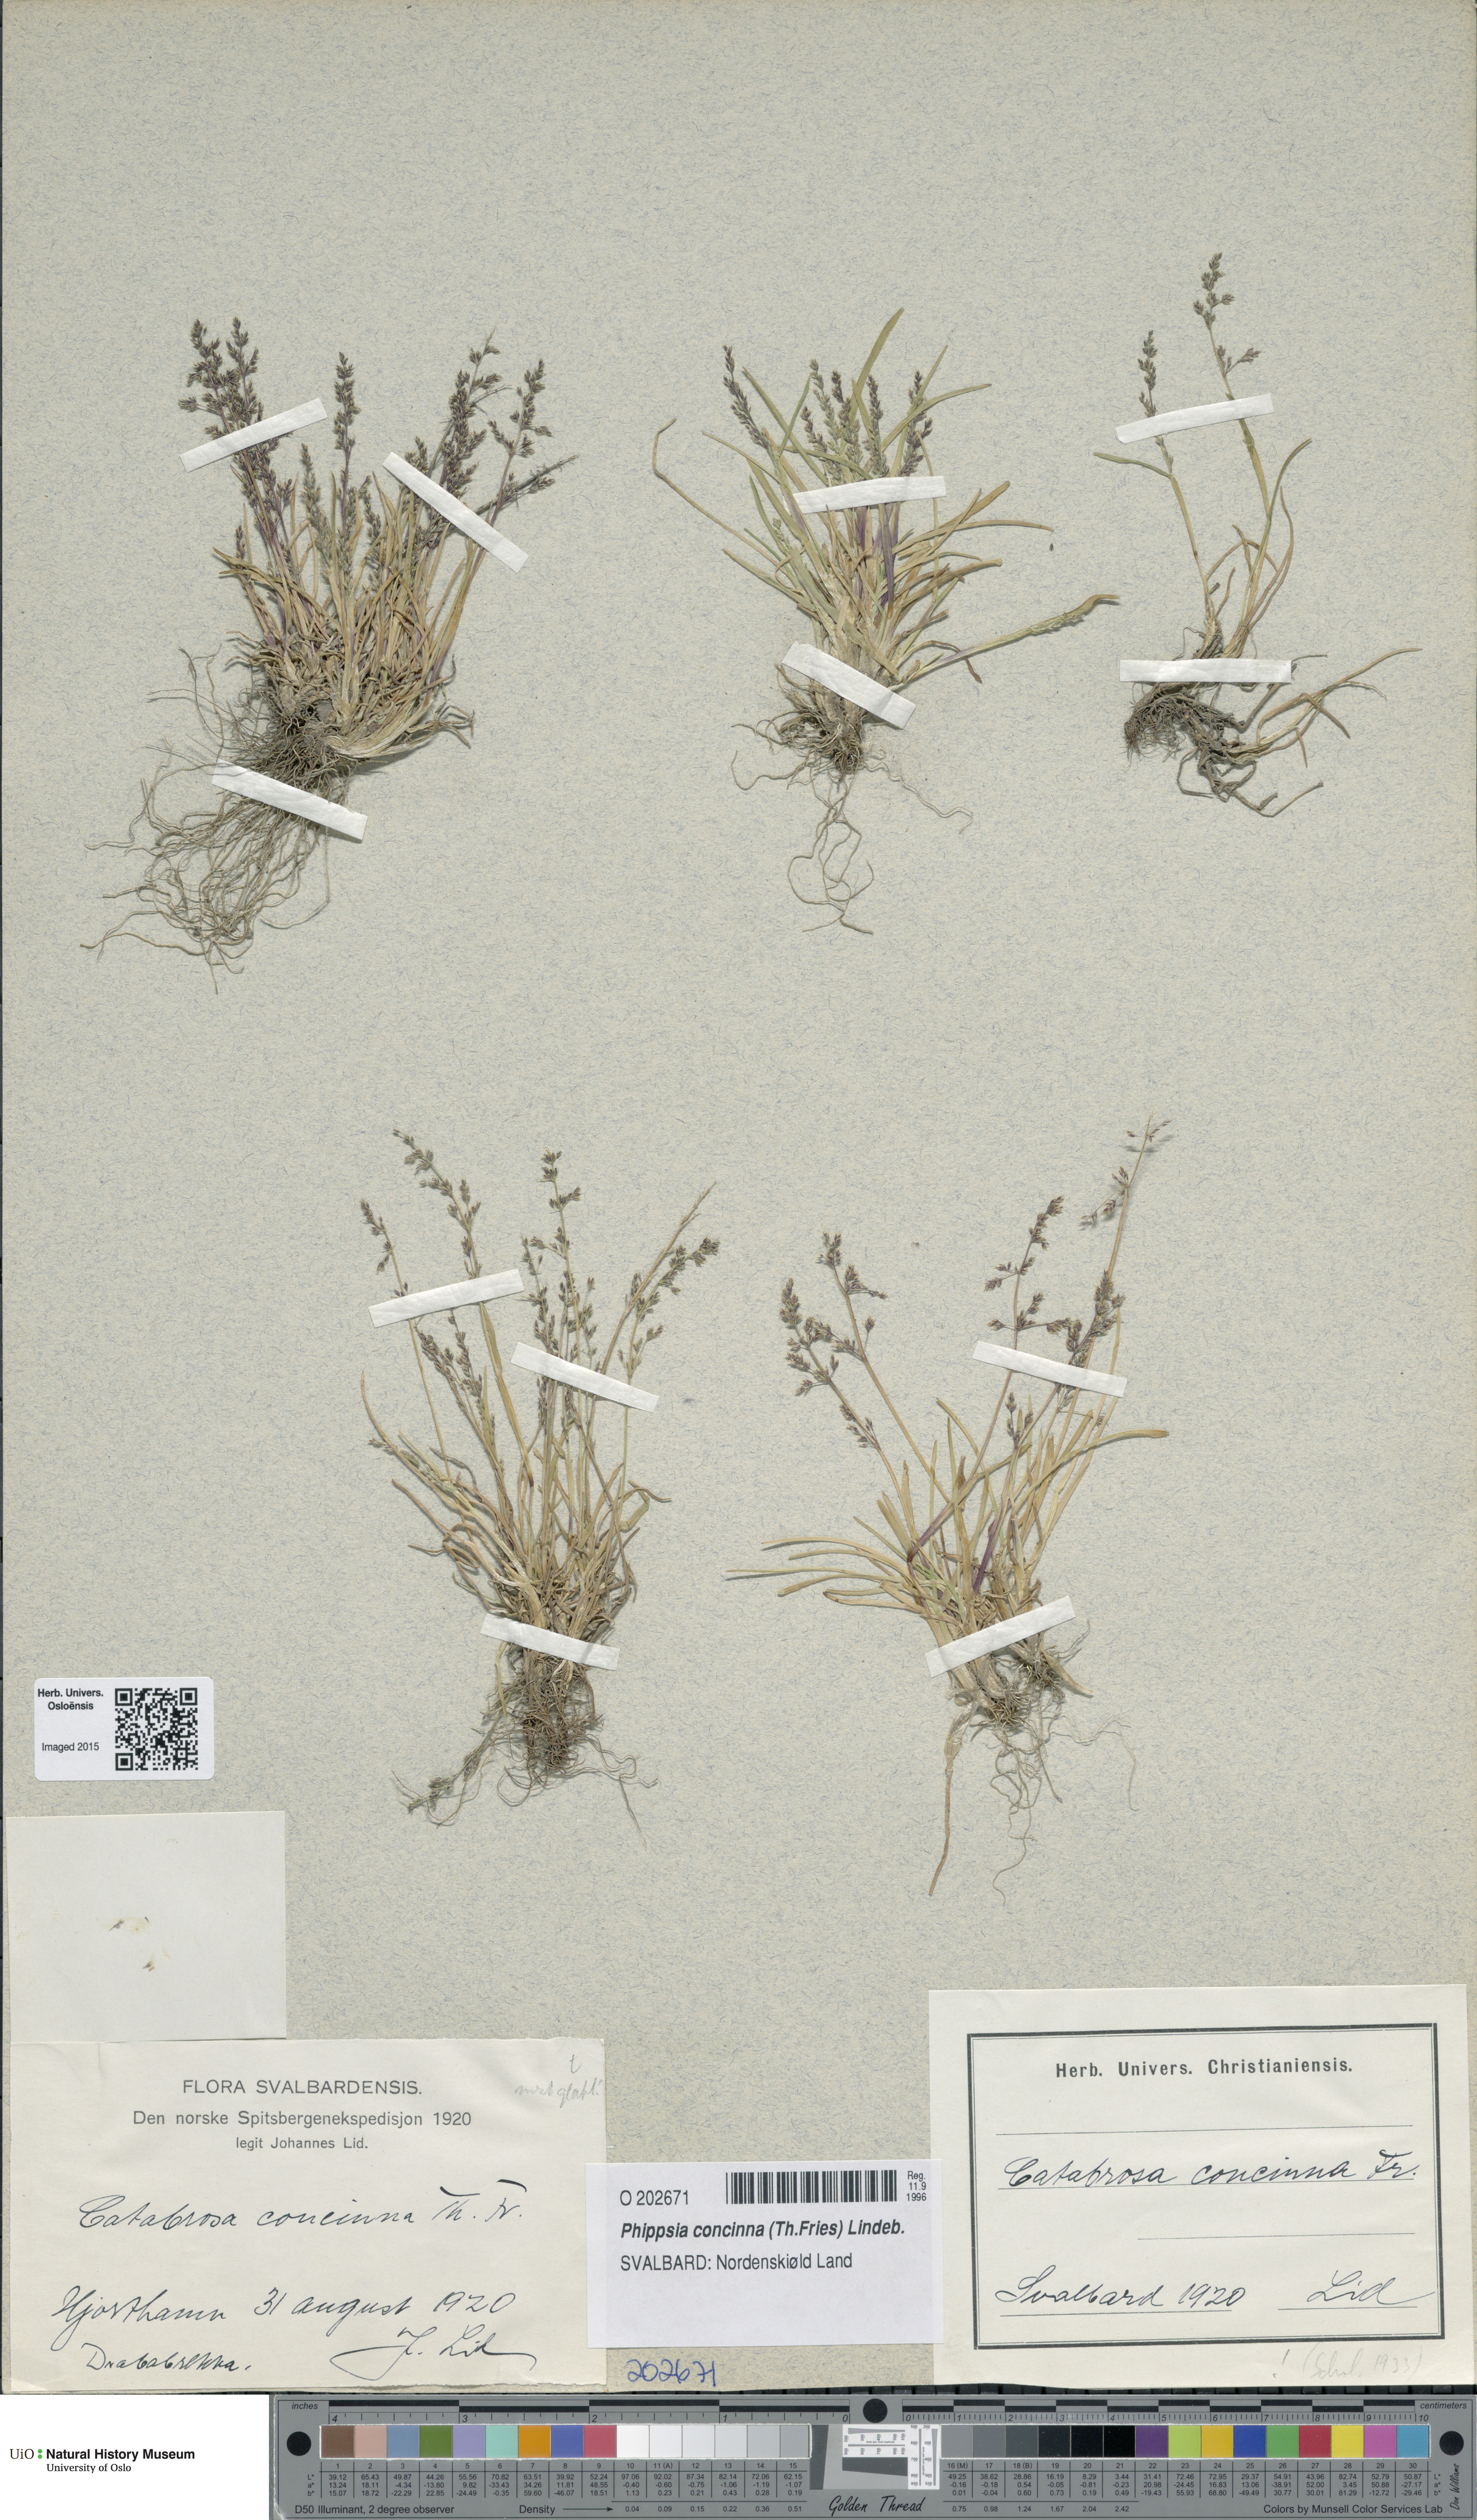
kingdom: Plantae
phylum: Tracheophyta
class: Liliopsida
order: Poales
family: Poaceae
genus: Phippsia
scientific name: Phippsia concinna
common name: Snowgrass
